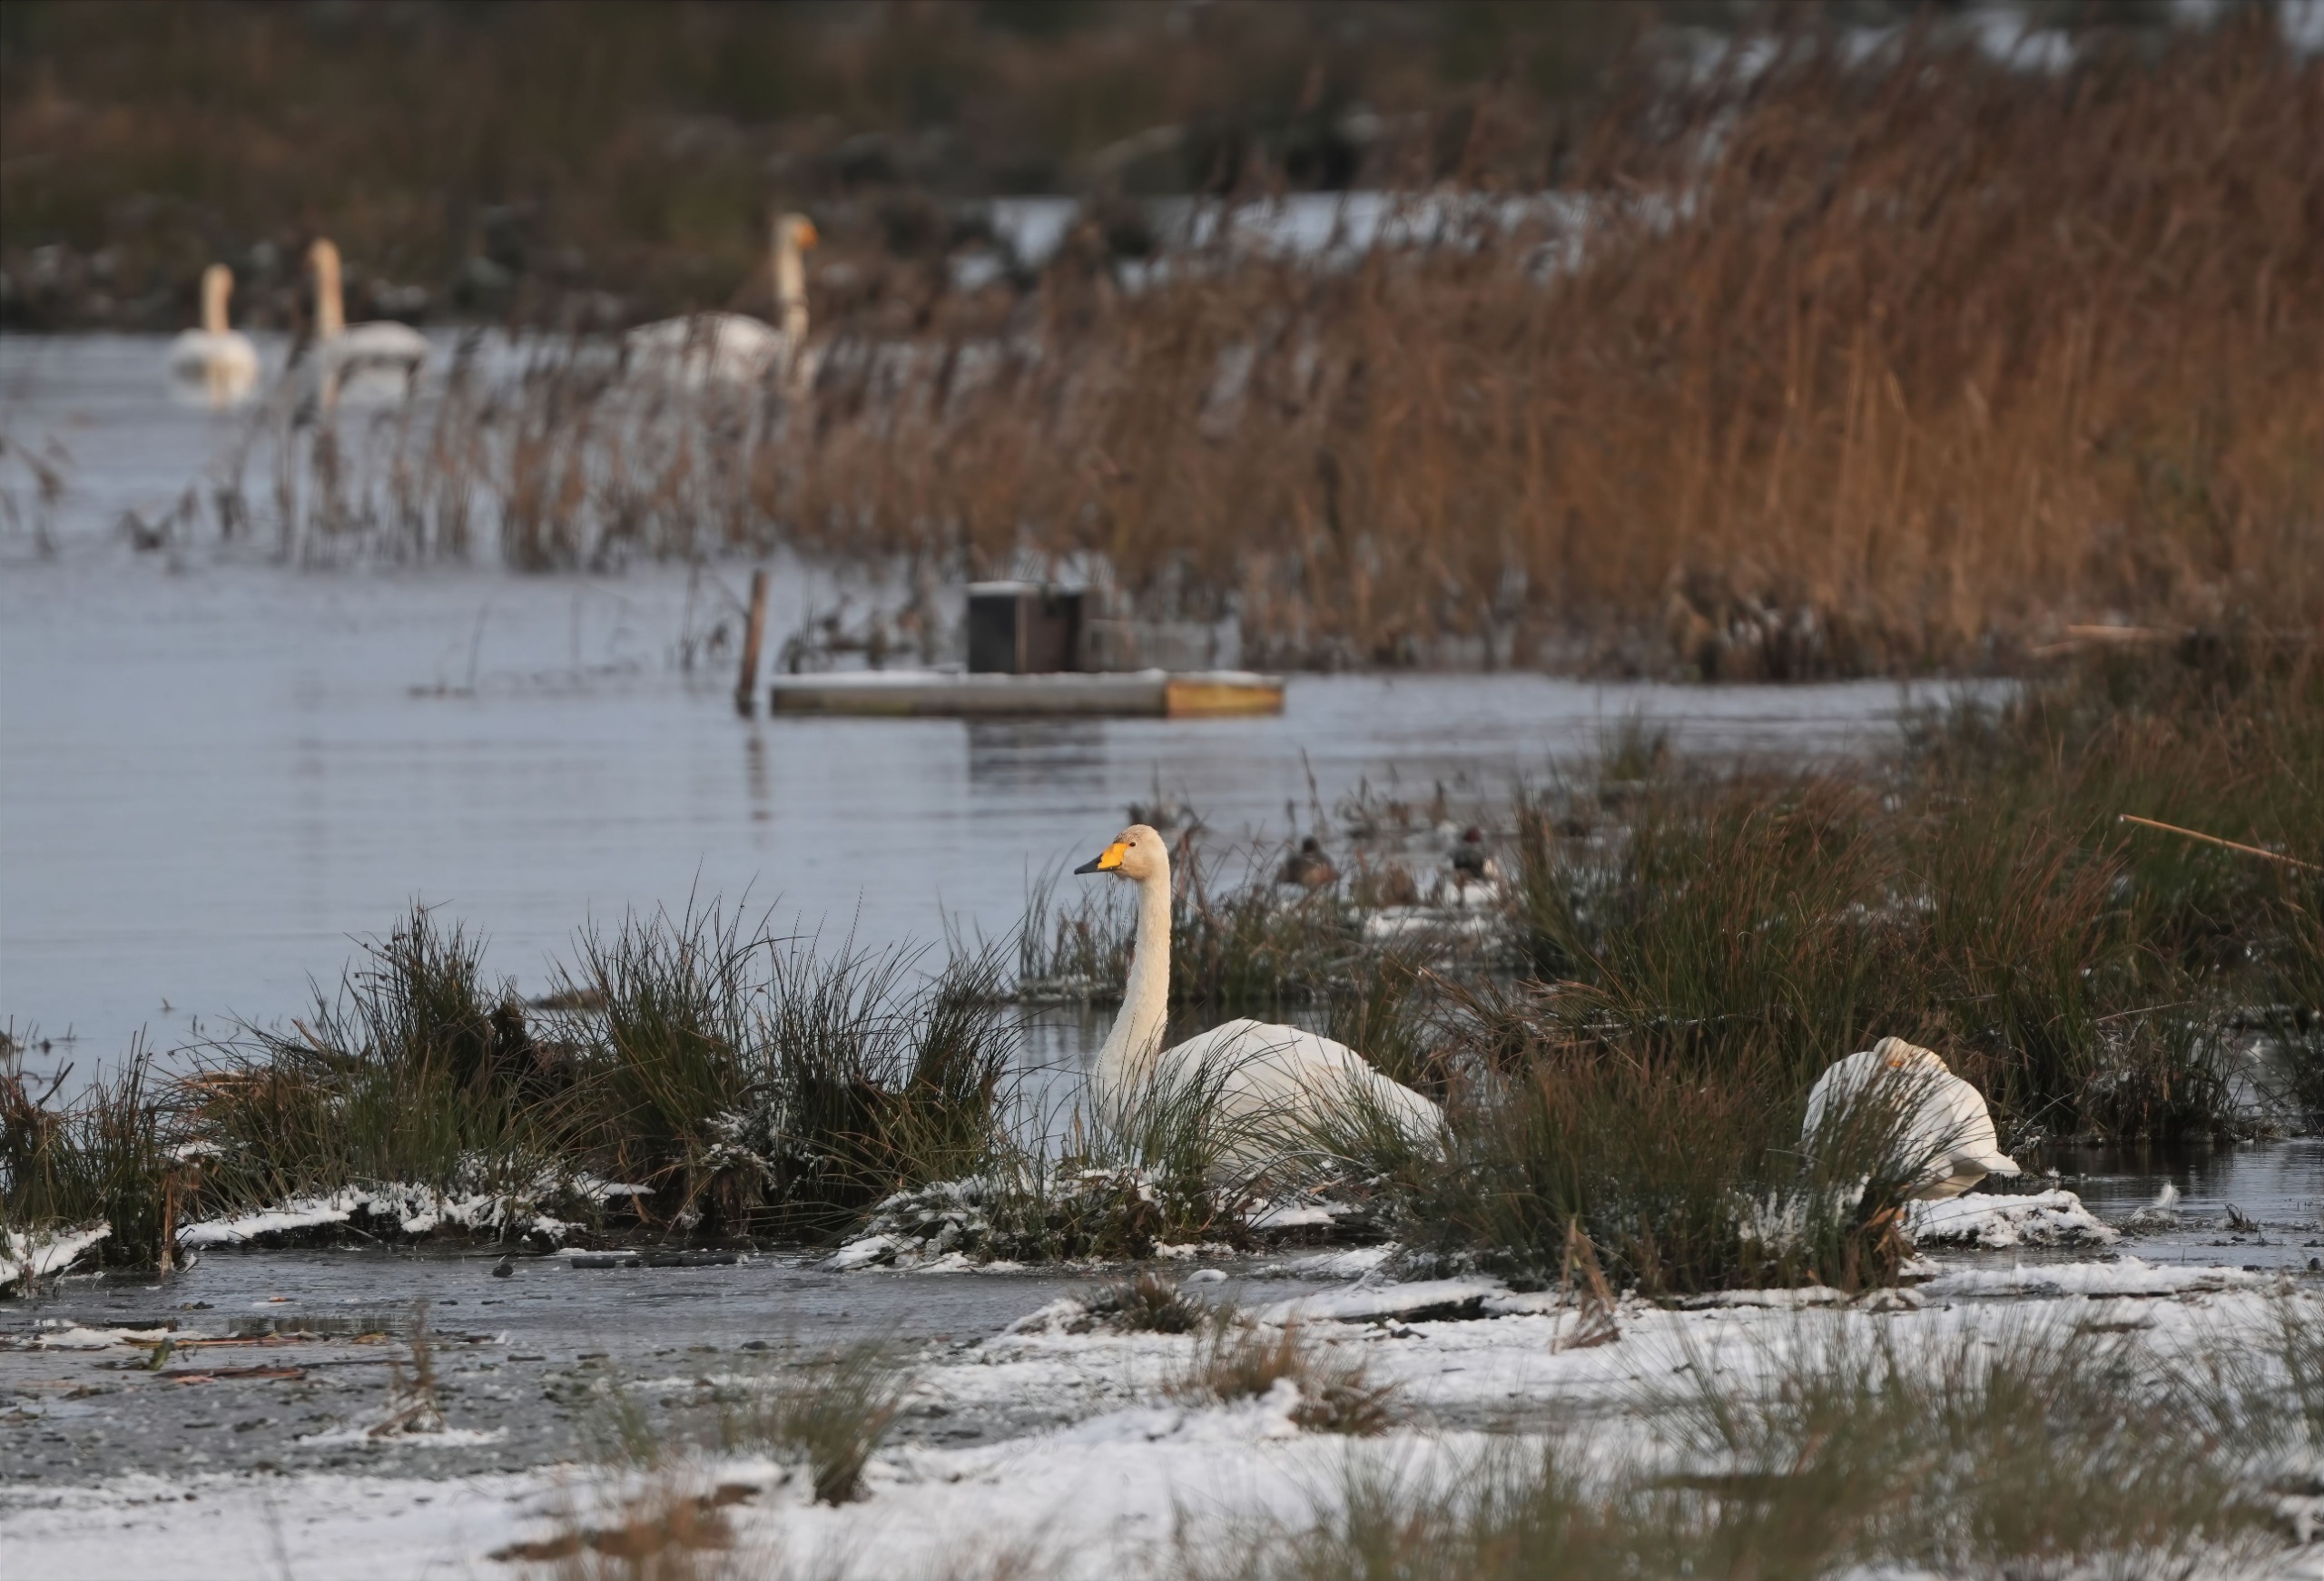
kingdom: Animalia
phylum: Chordata
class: Aves
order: Anseriformes
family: Anatidae
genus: Cygnus
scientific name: Cygnus cygnus
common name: Sangsvane
